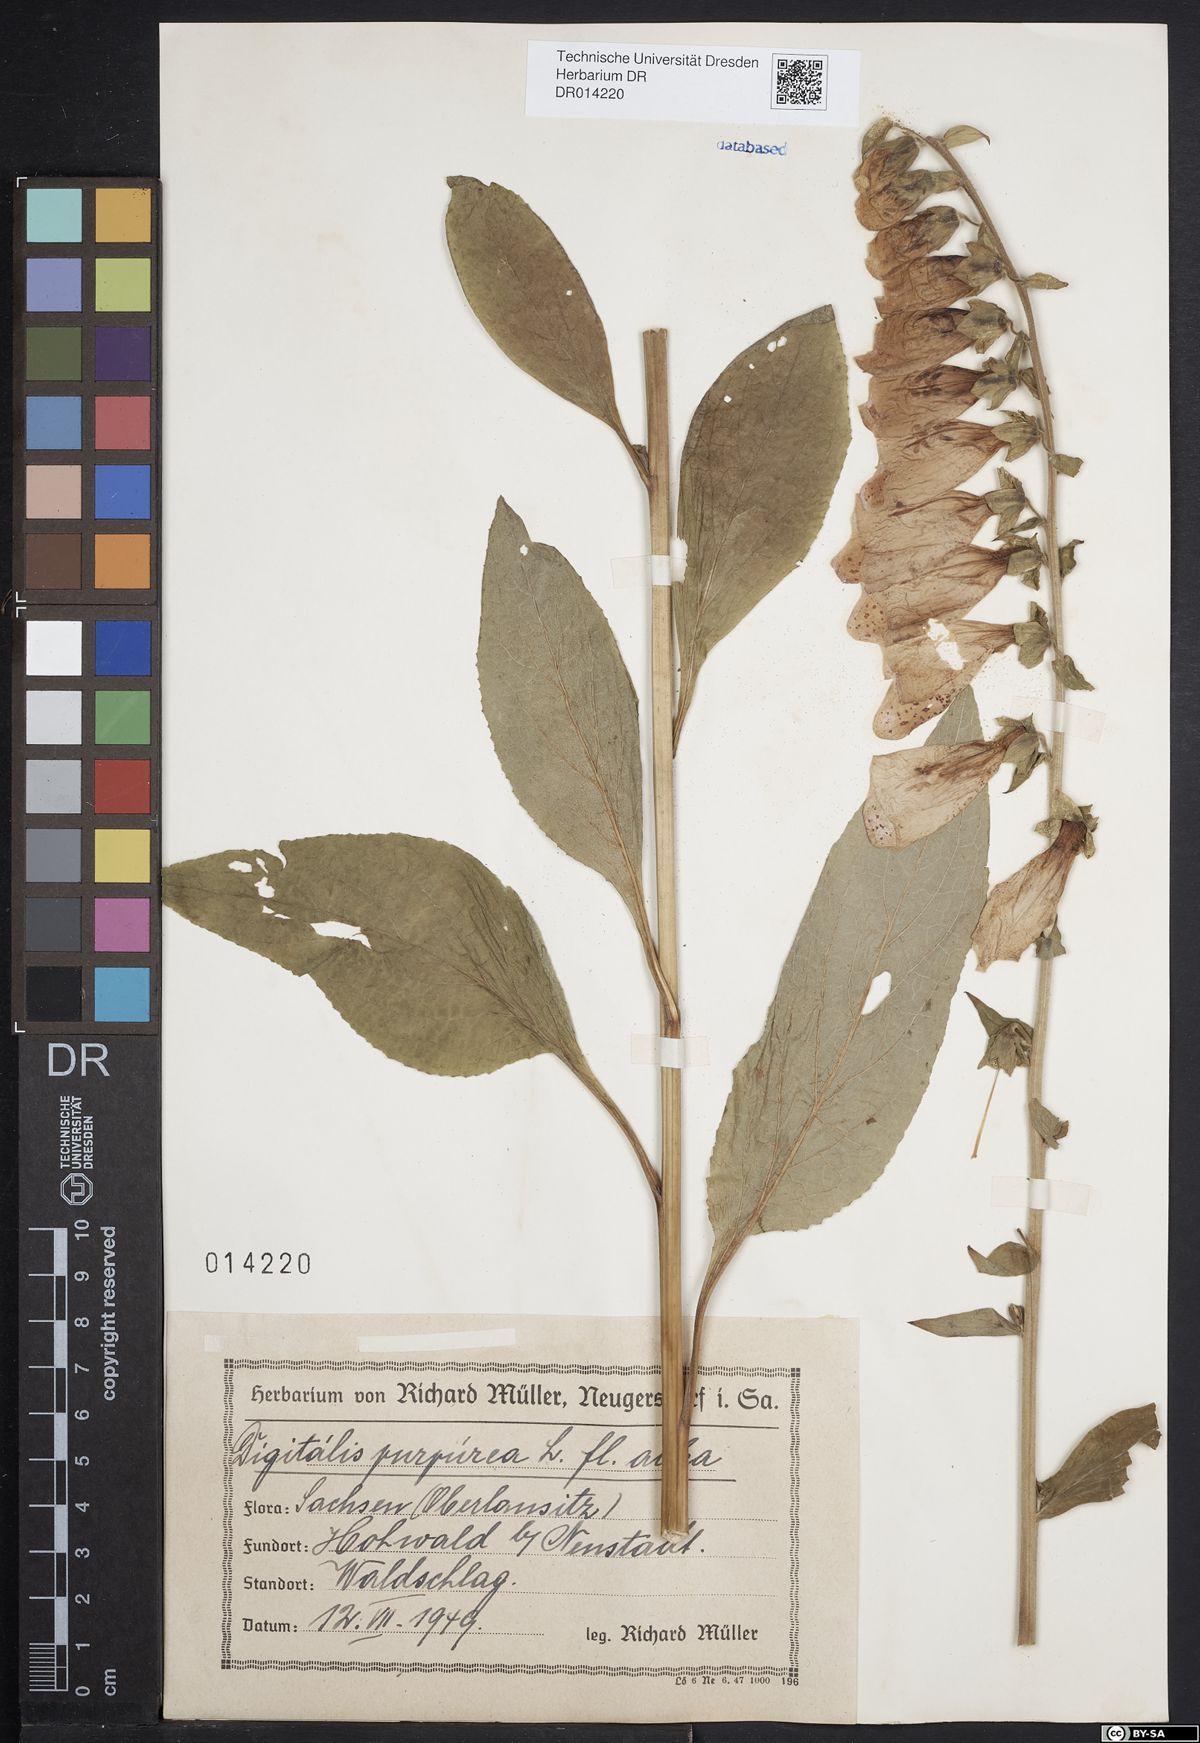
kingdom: Plantae
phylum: Tracheophyta
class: Magnoliopsida
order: Lamiales
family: Plantaginaceae
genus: Digitalis
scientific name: Digitalis purpurea
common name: Foxglove
